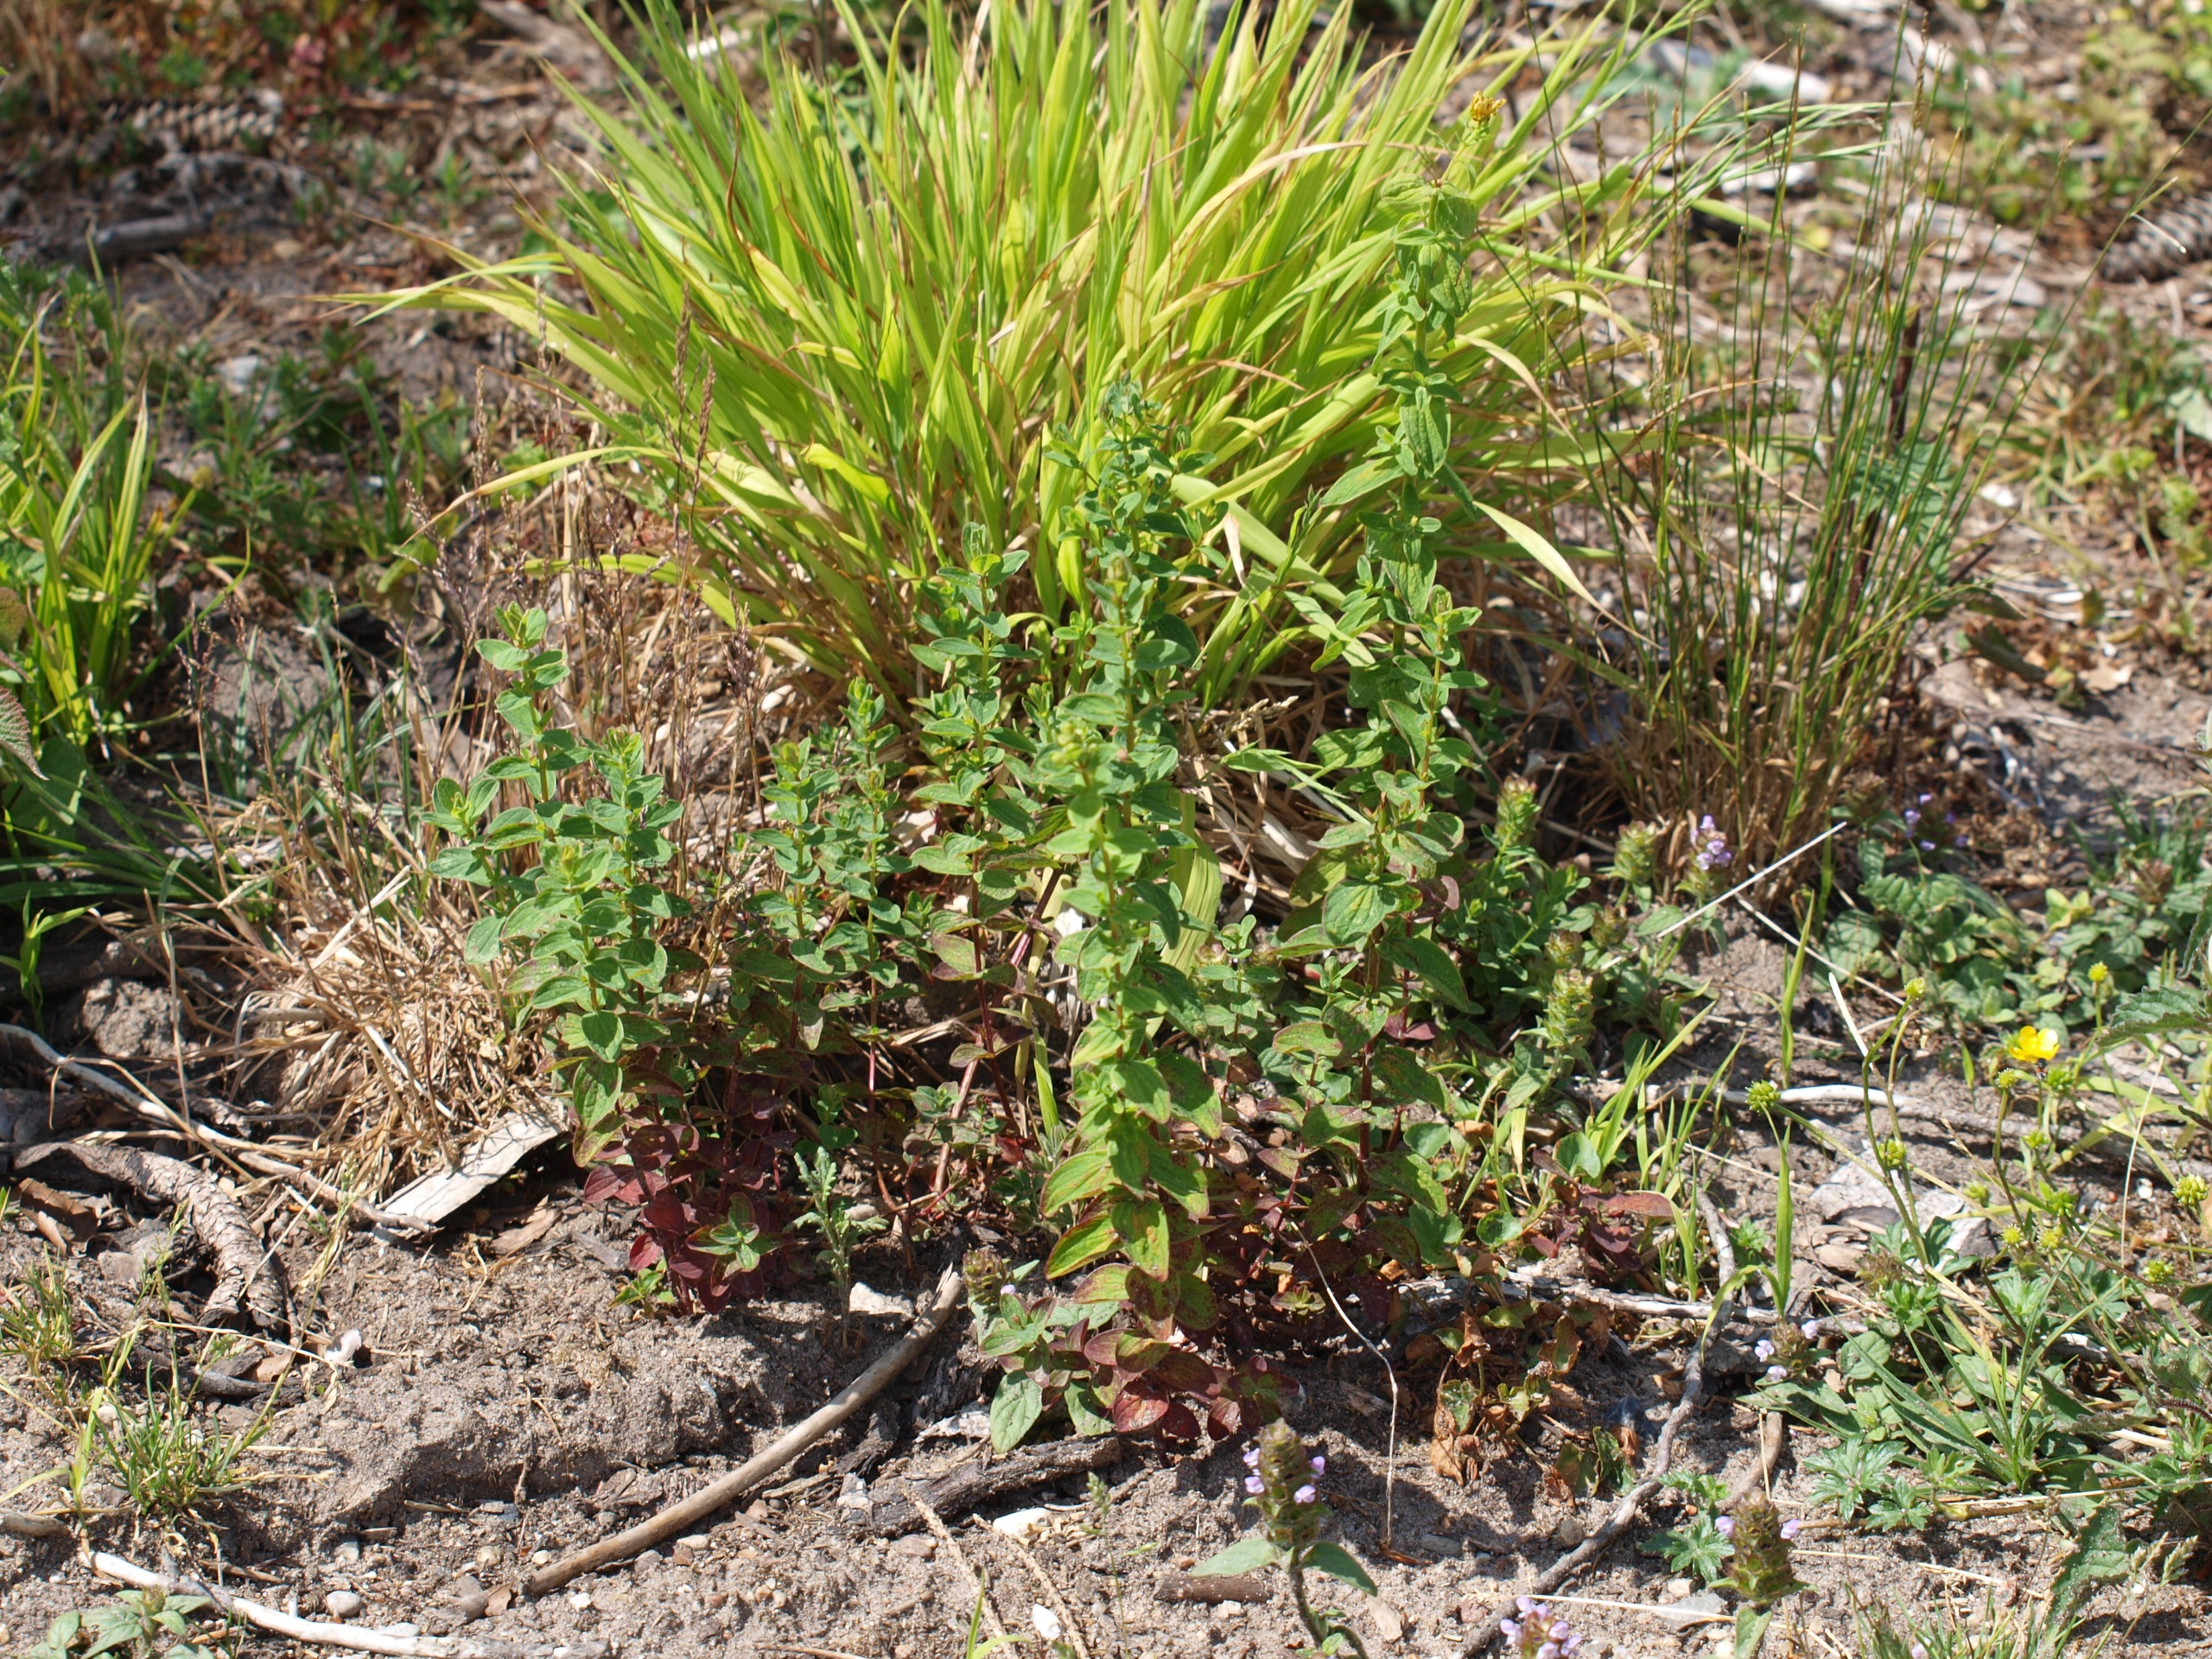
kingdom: Plantae
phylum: Tracheophyta
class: Magnoliopsida
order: Malpighiales
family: Hypericaceae
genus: Hypericum
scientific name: Hypericum maculatum
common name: Kantet perikon
